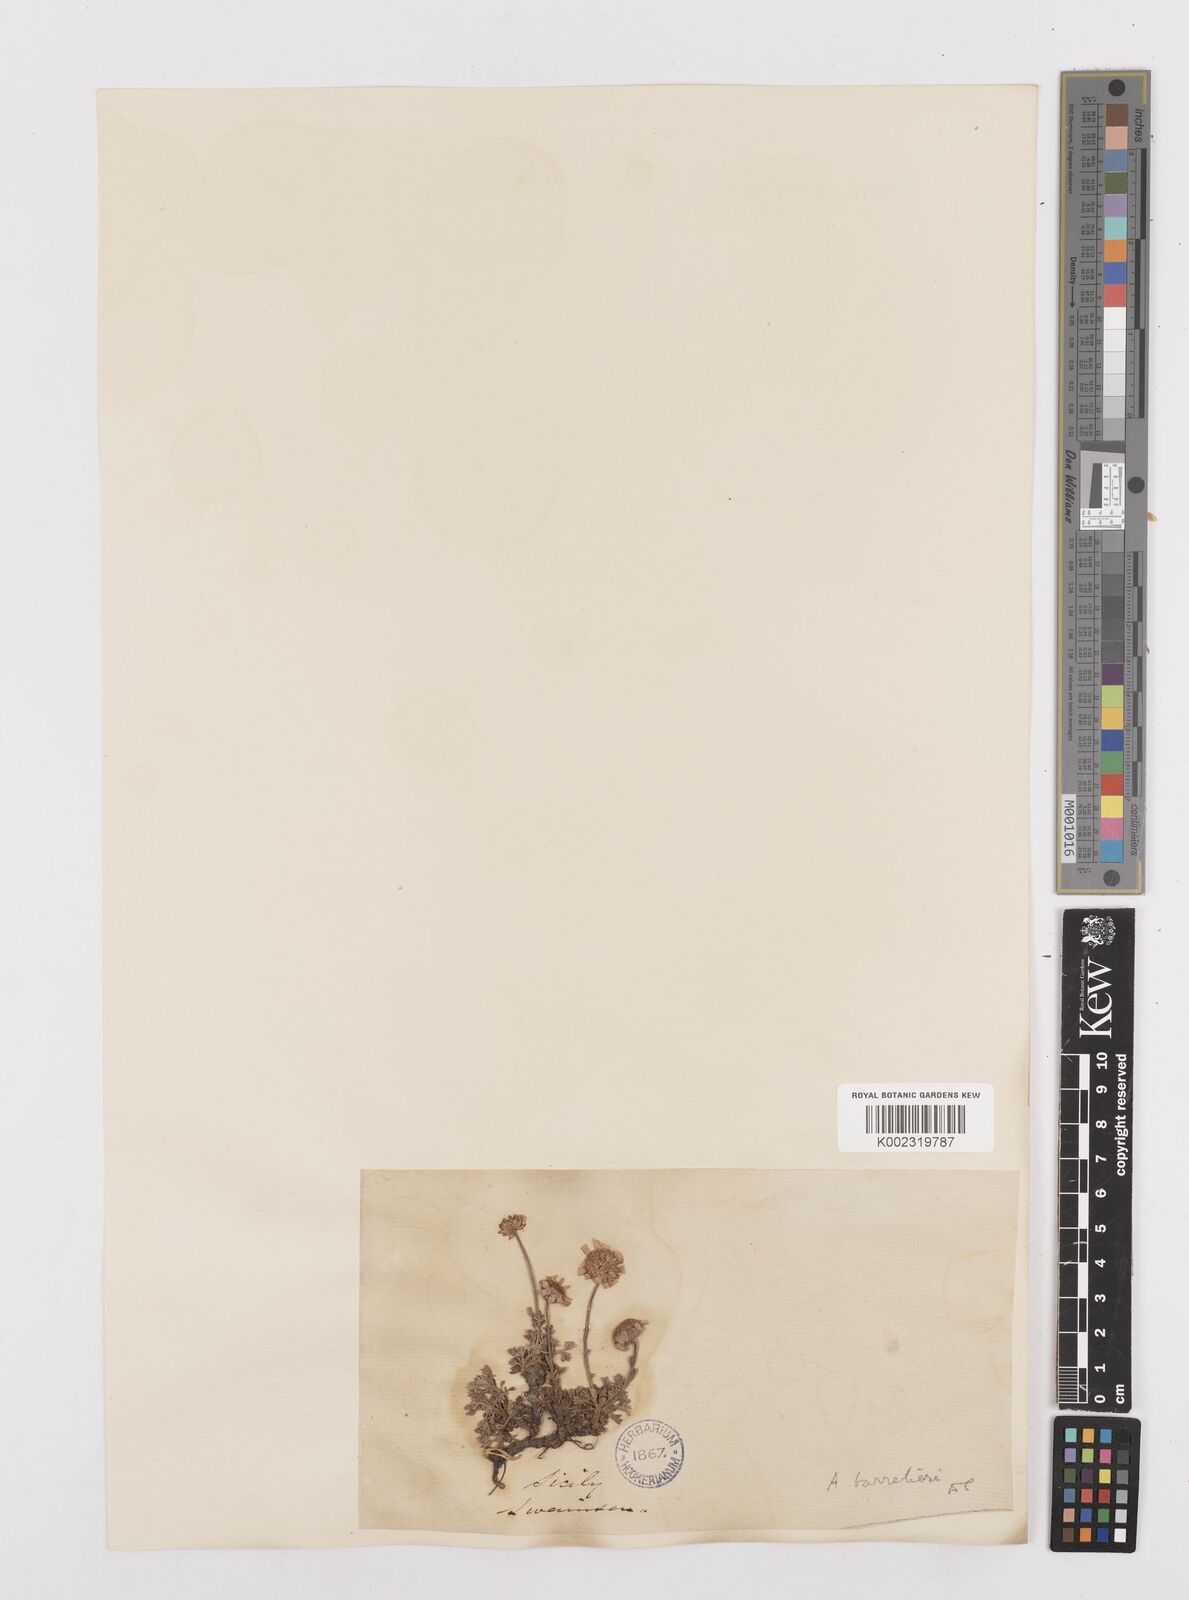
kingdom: Plantae
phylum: Tracheophyta
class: Magnoliopsida
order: Asterales
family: Asteraceae
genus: Achillea
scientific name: Achillea barrelieri
